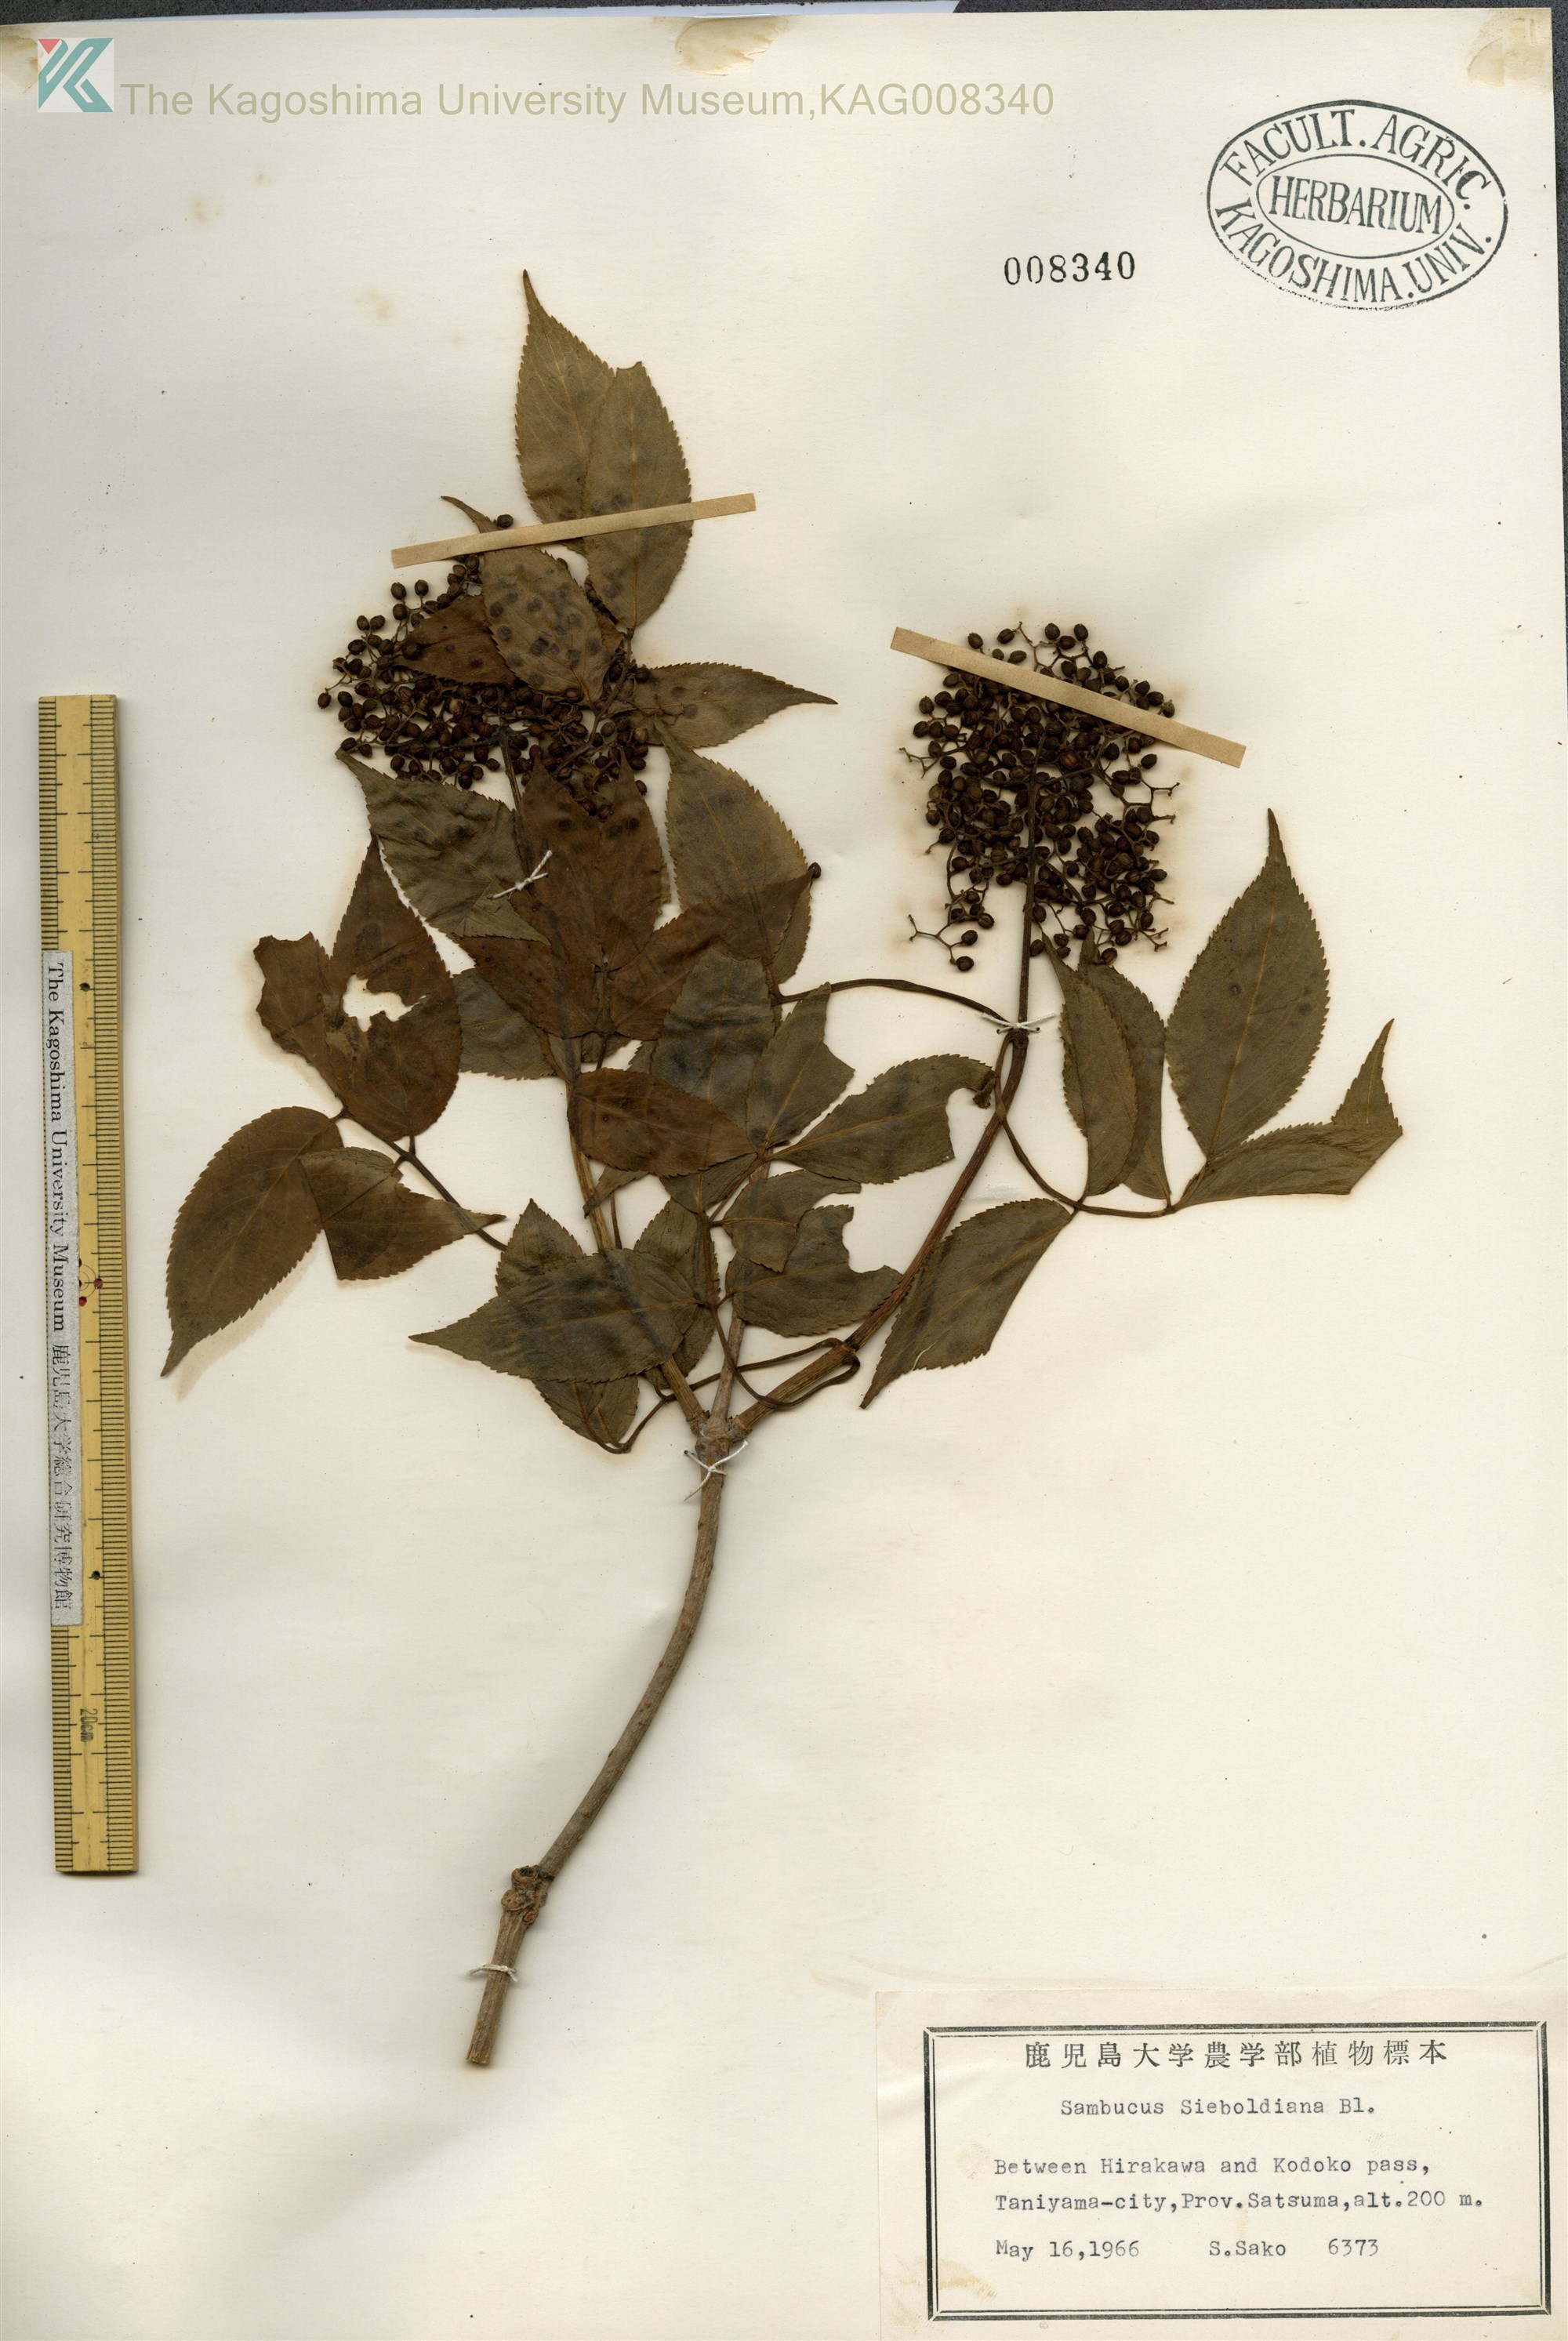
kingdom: Plantae
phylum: Tracheophyta
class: Magnoliopsida
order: Dipsacales
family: Viburnaceae
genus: Sambucus
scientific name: Sambucus sieboldiana
